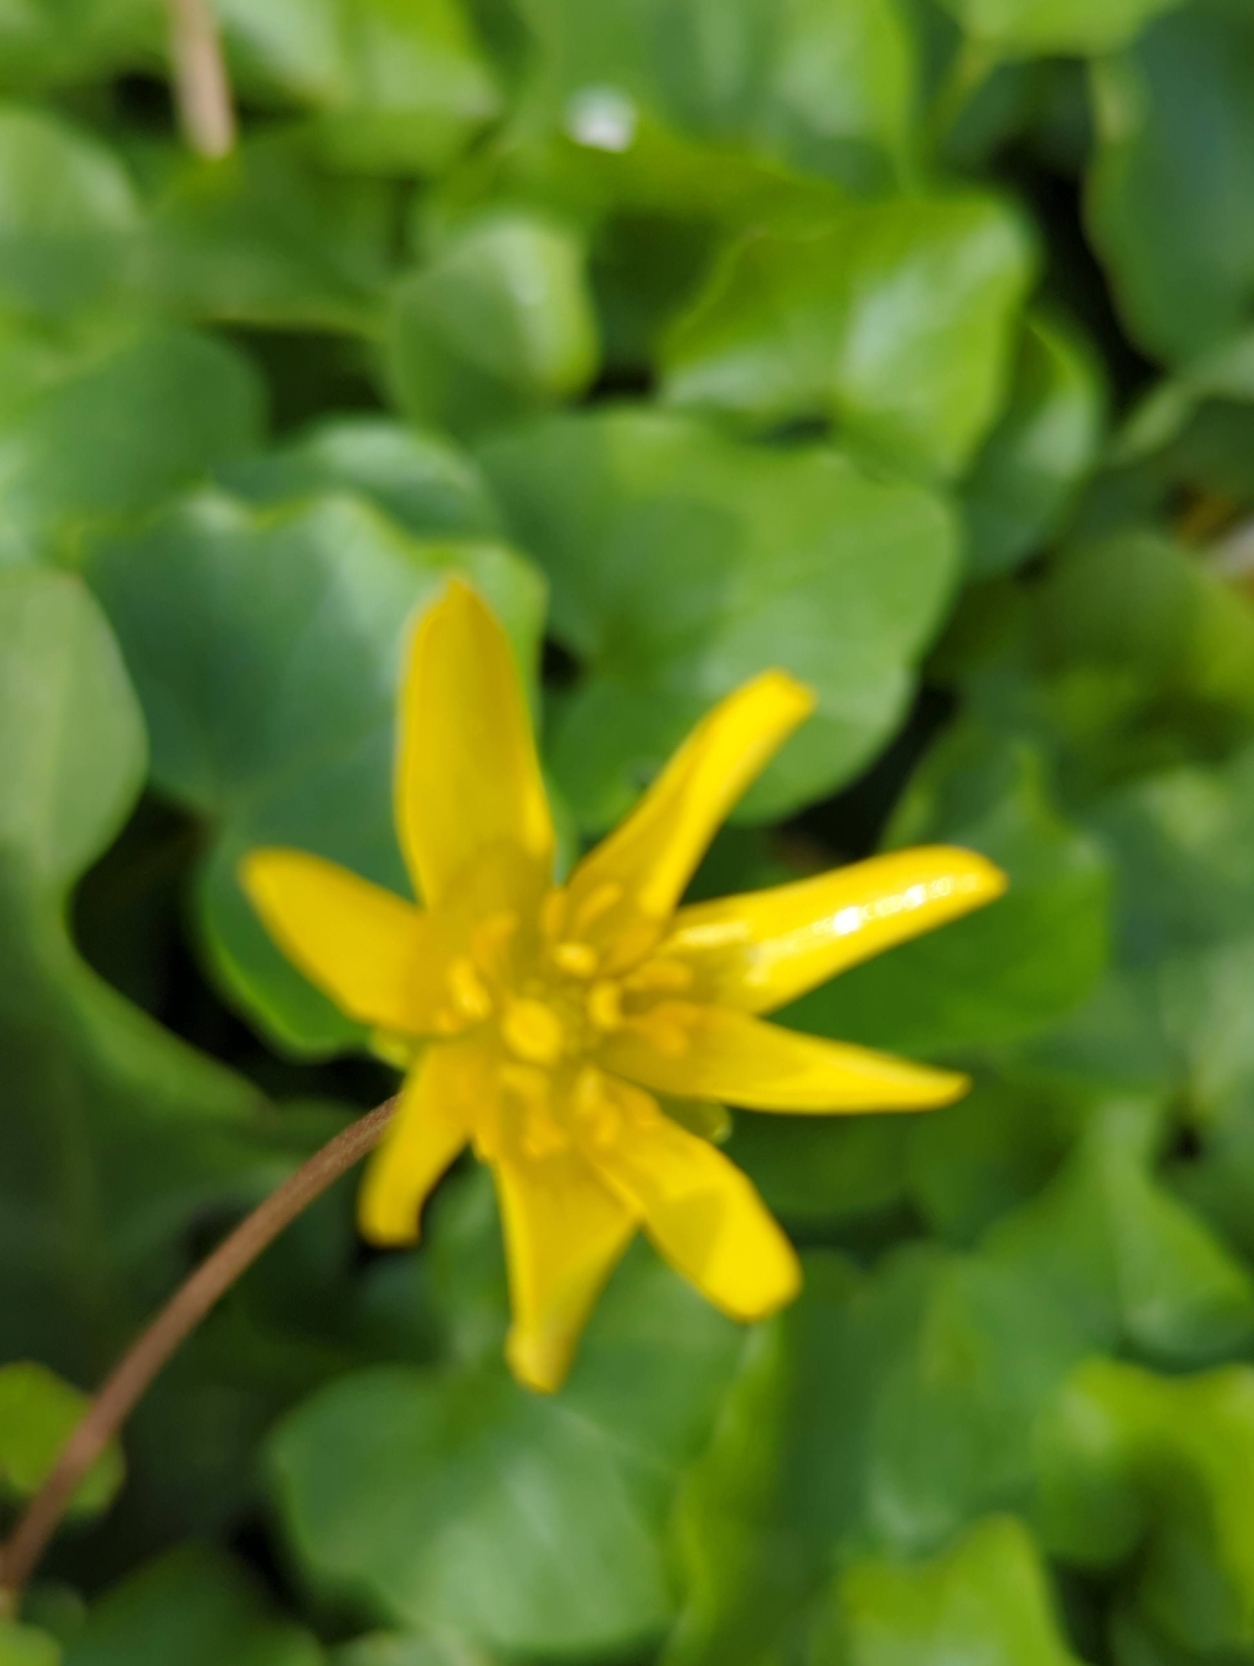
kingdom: Plantae
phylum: Tracheophyta
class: Magnoliopsida
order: Ranunculales
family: Ranunculaceae
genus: Ficaria
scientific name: Ficaria verna
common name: Vorterod
